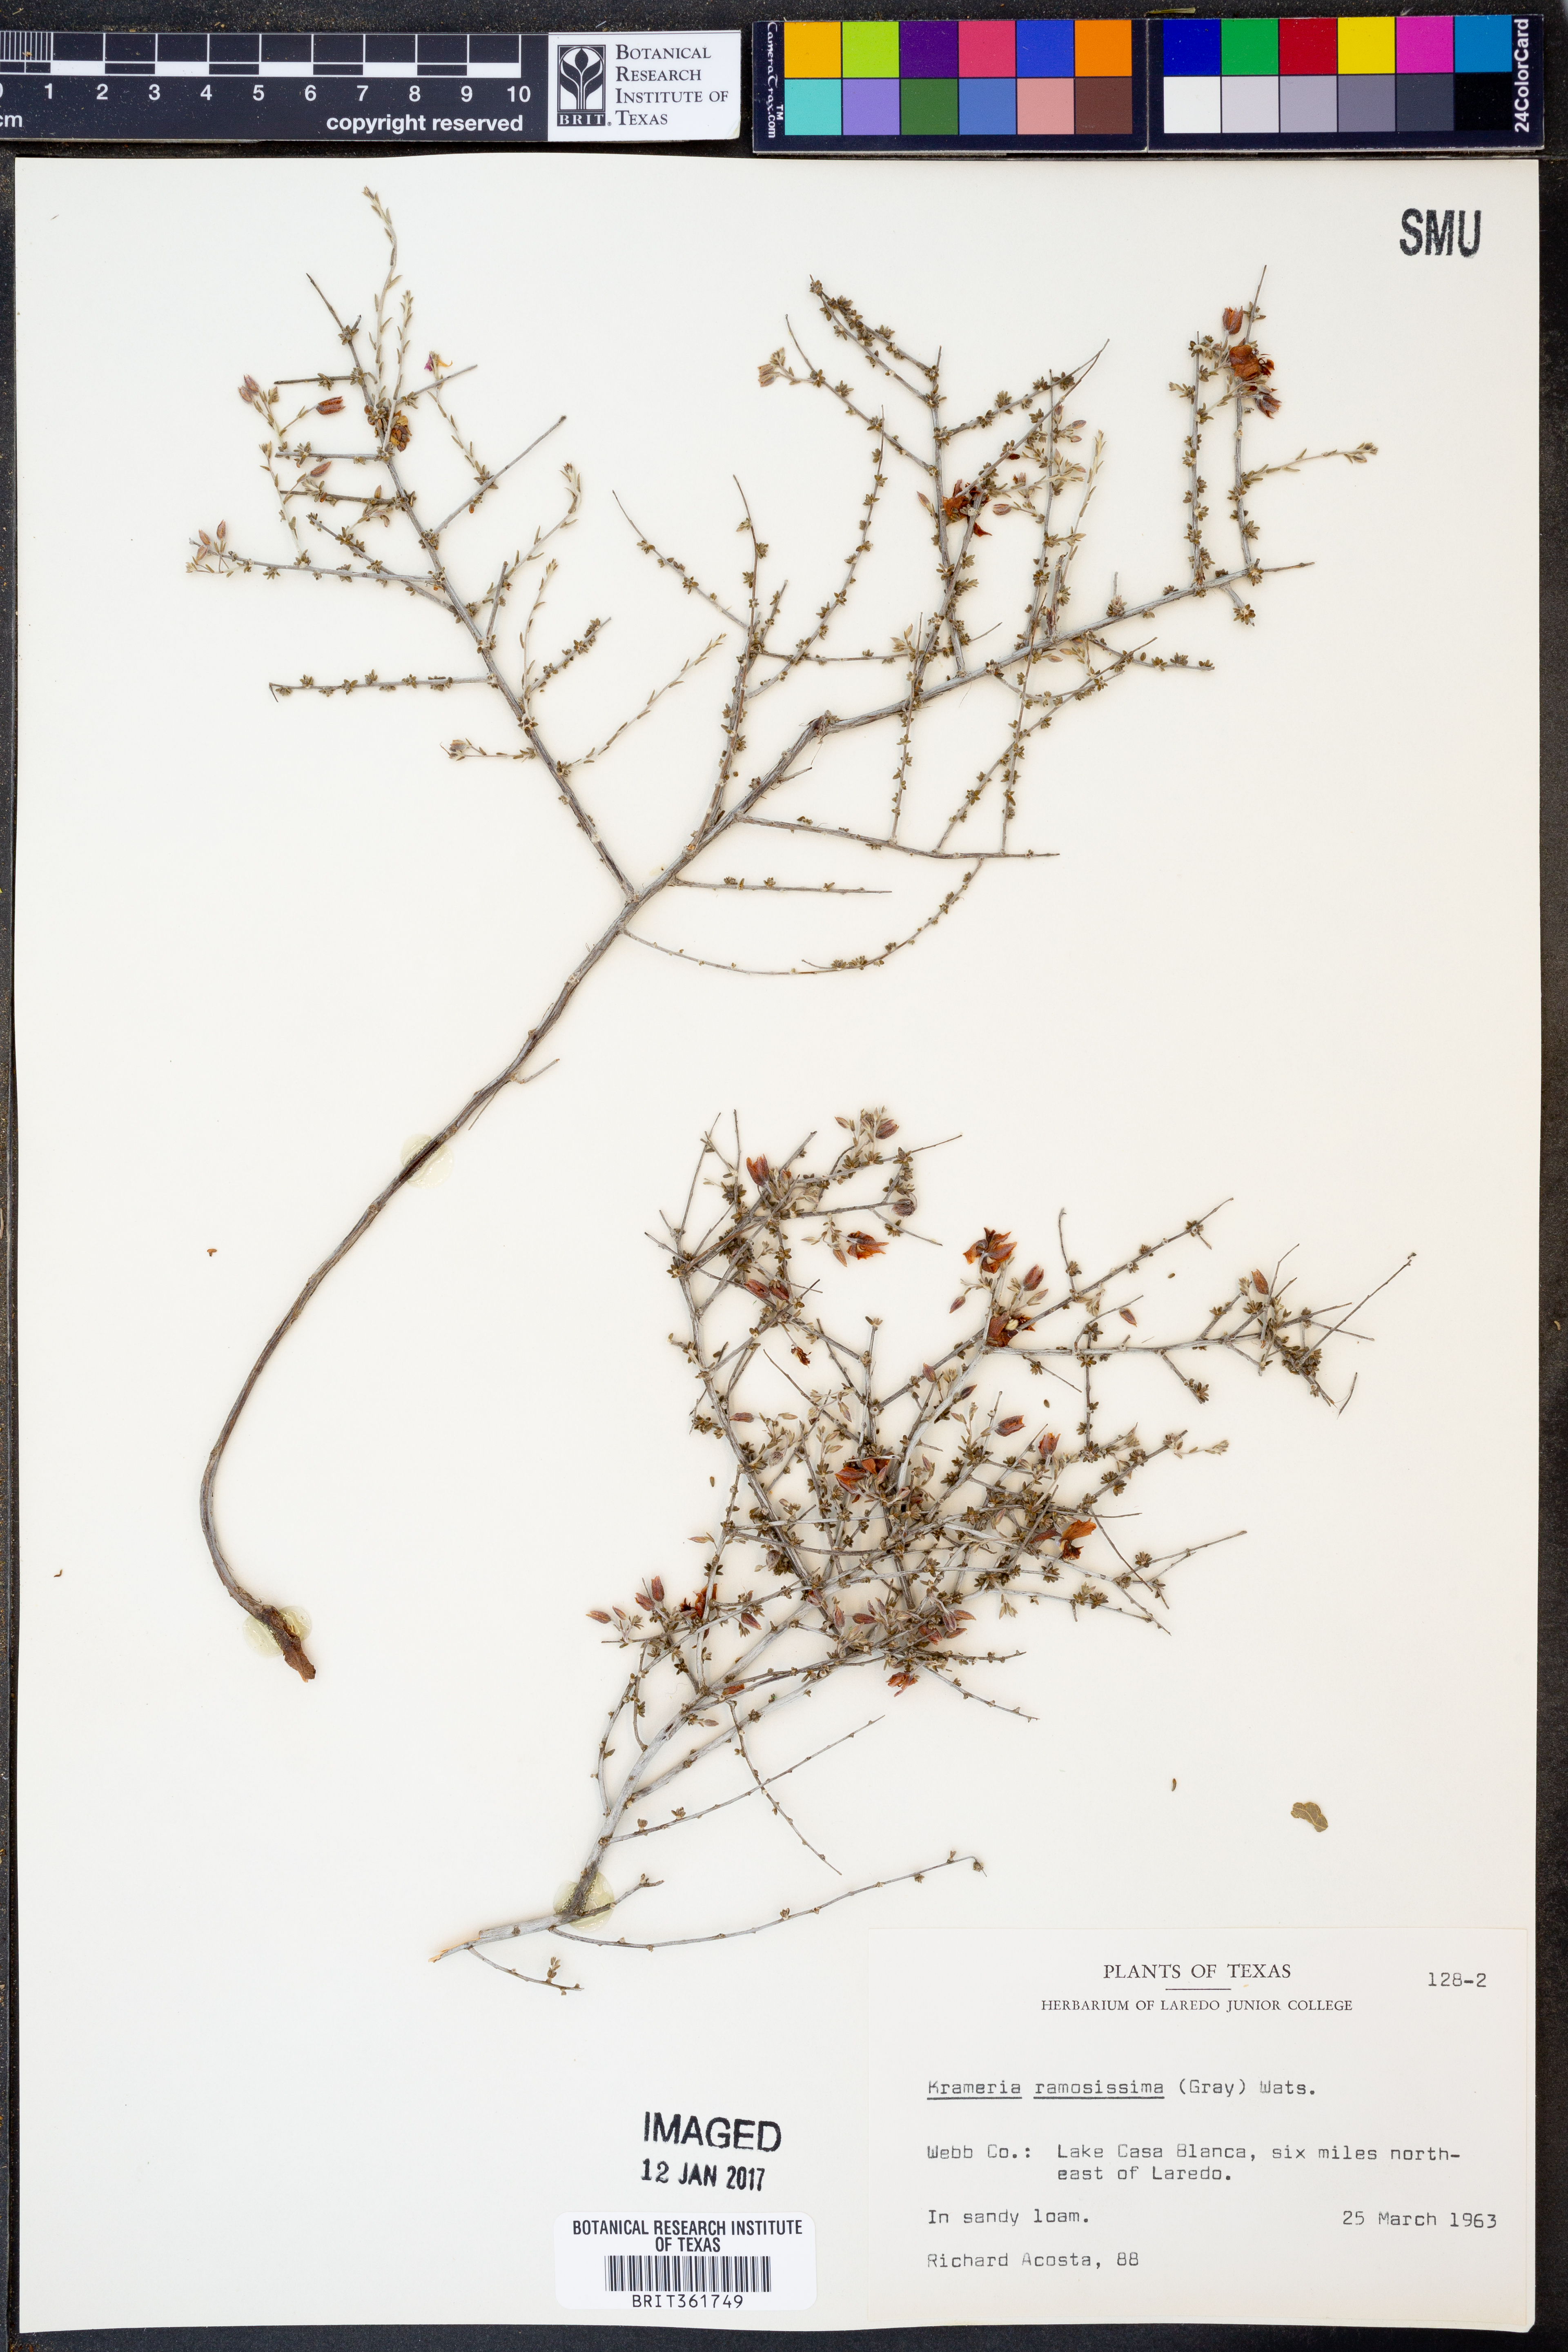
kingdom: Plantae
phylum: Tracheophyta
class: Magnoliopsida
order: Zygophyllales
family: Krameriaceae
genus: Krameria
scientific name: Krameria ramosissima
